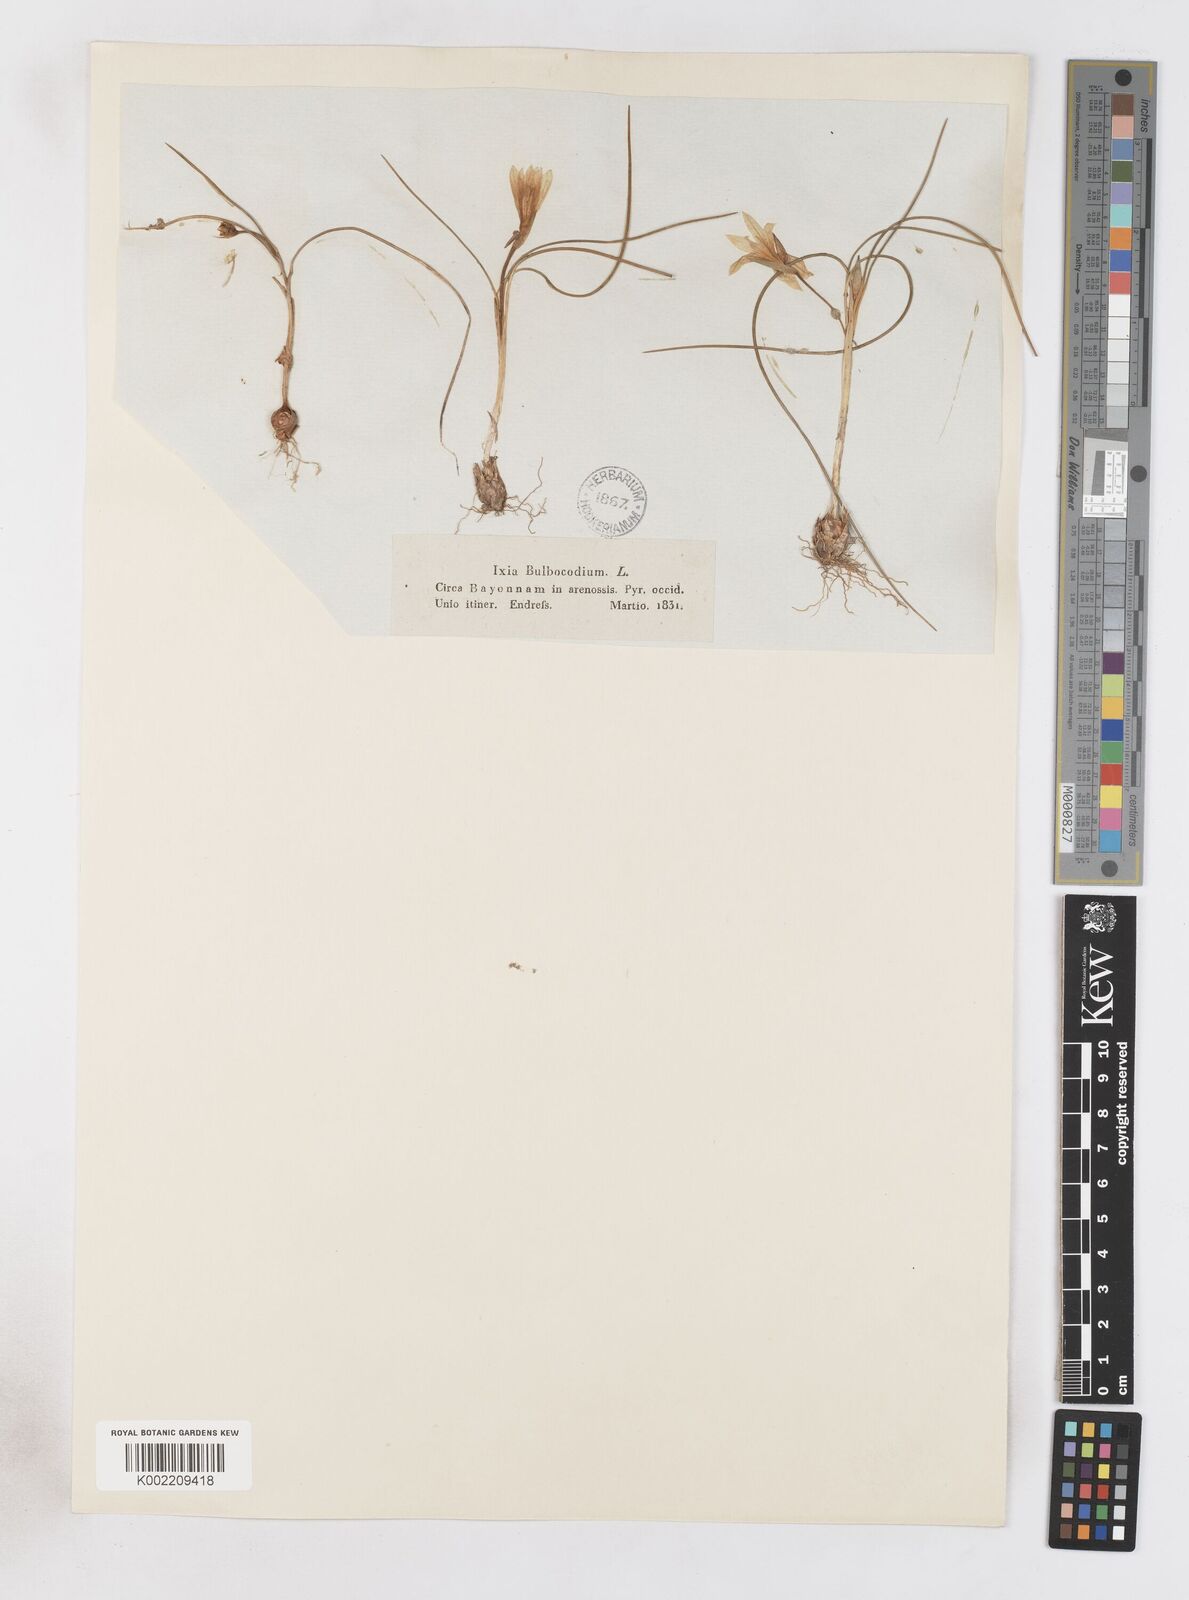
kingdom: Plantae
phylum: Tracheophyta
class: Liliopsida
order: Asparagales
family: Iridaceae
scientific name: Iridaceae
